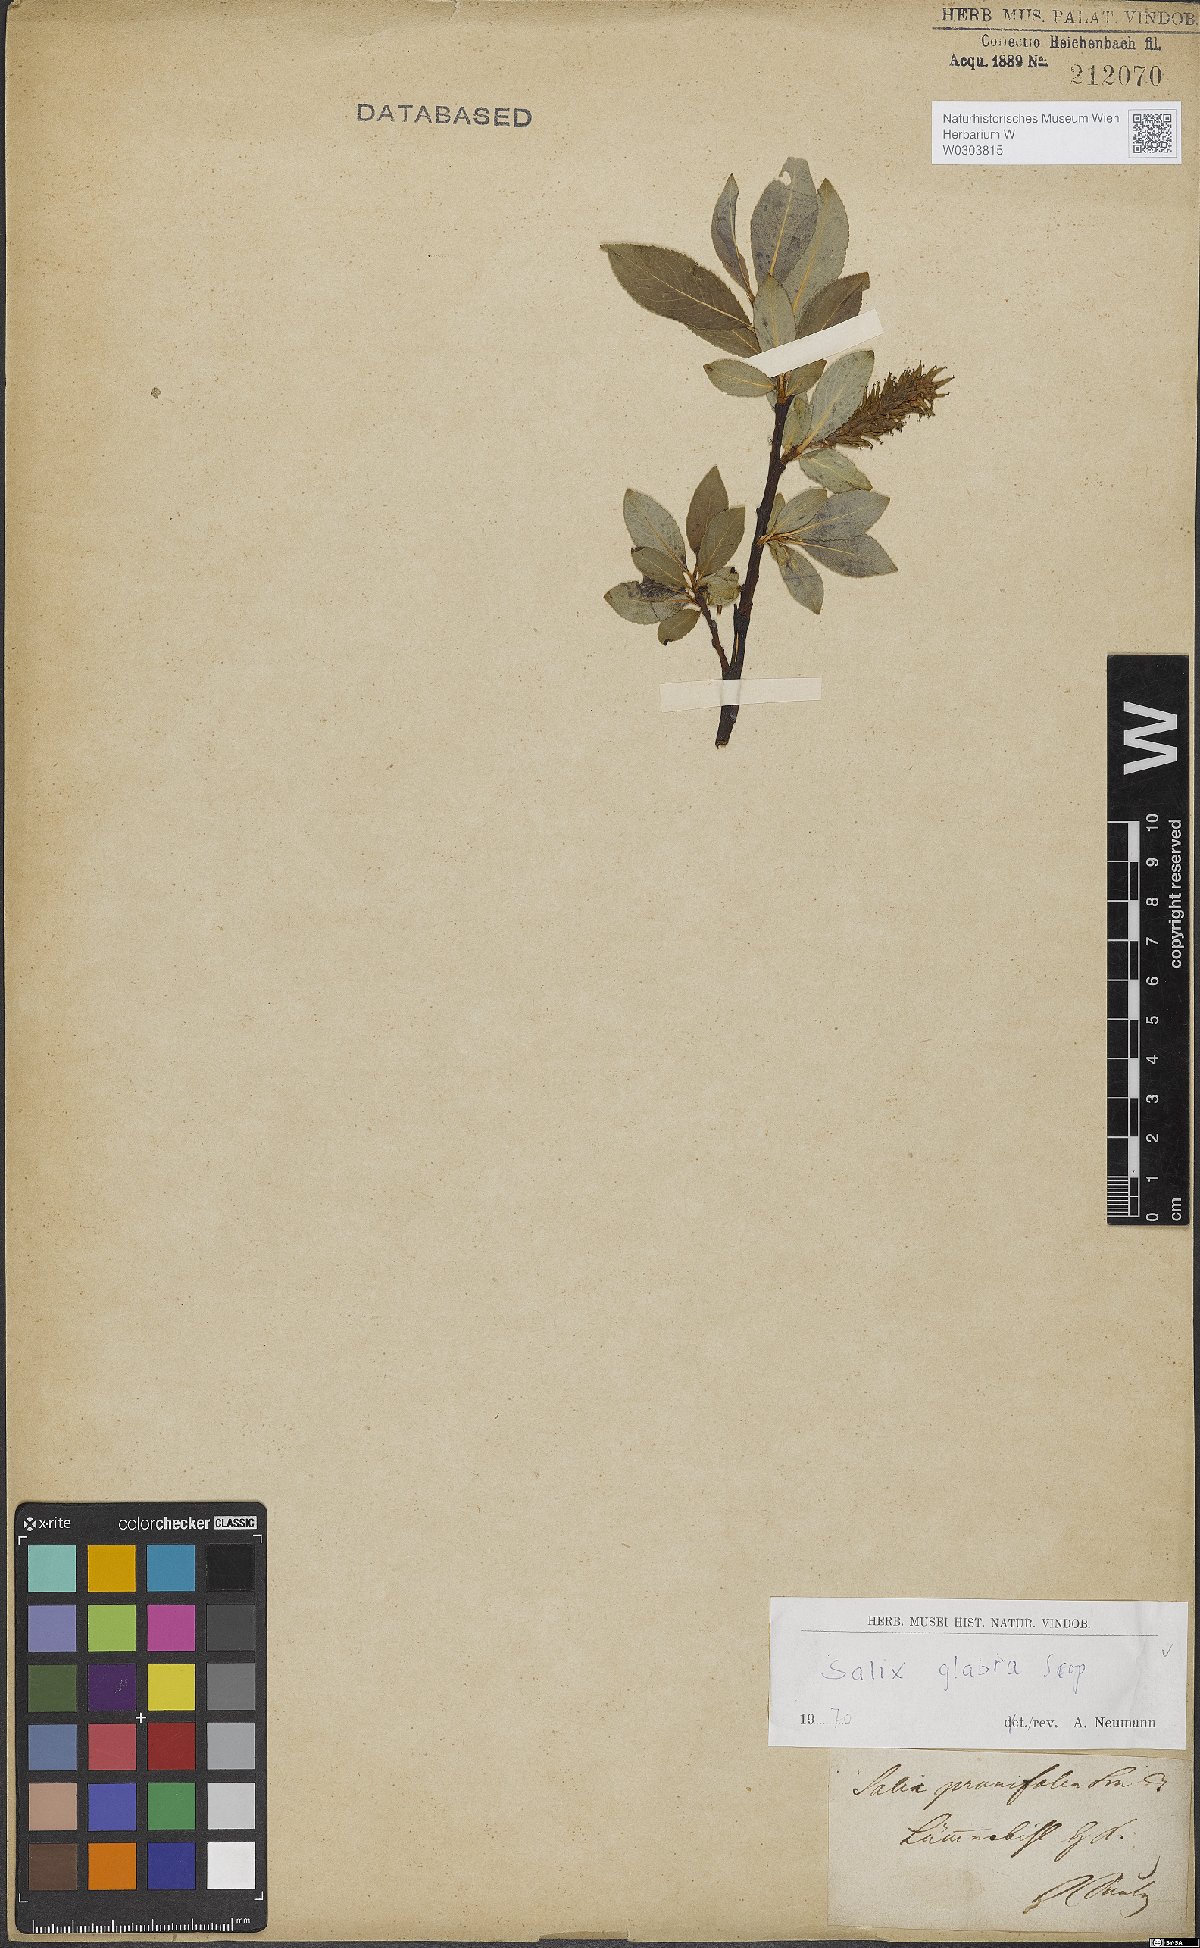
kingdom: Plantae
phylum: Tracheophyta
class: Magnoliopsida
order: Malpighiales
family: Salicaceae
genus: Salix
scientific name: Salix glabra
